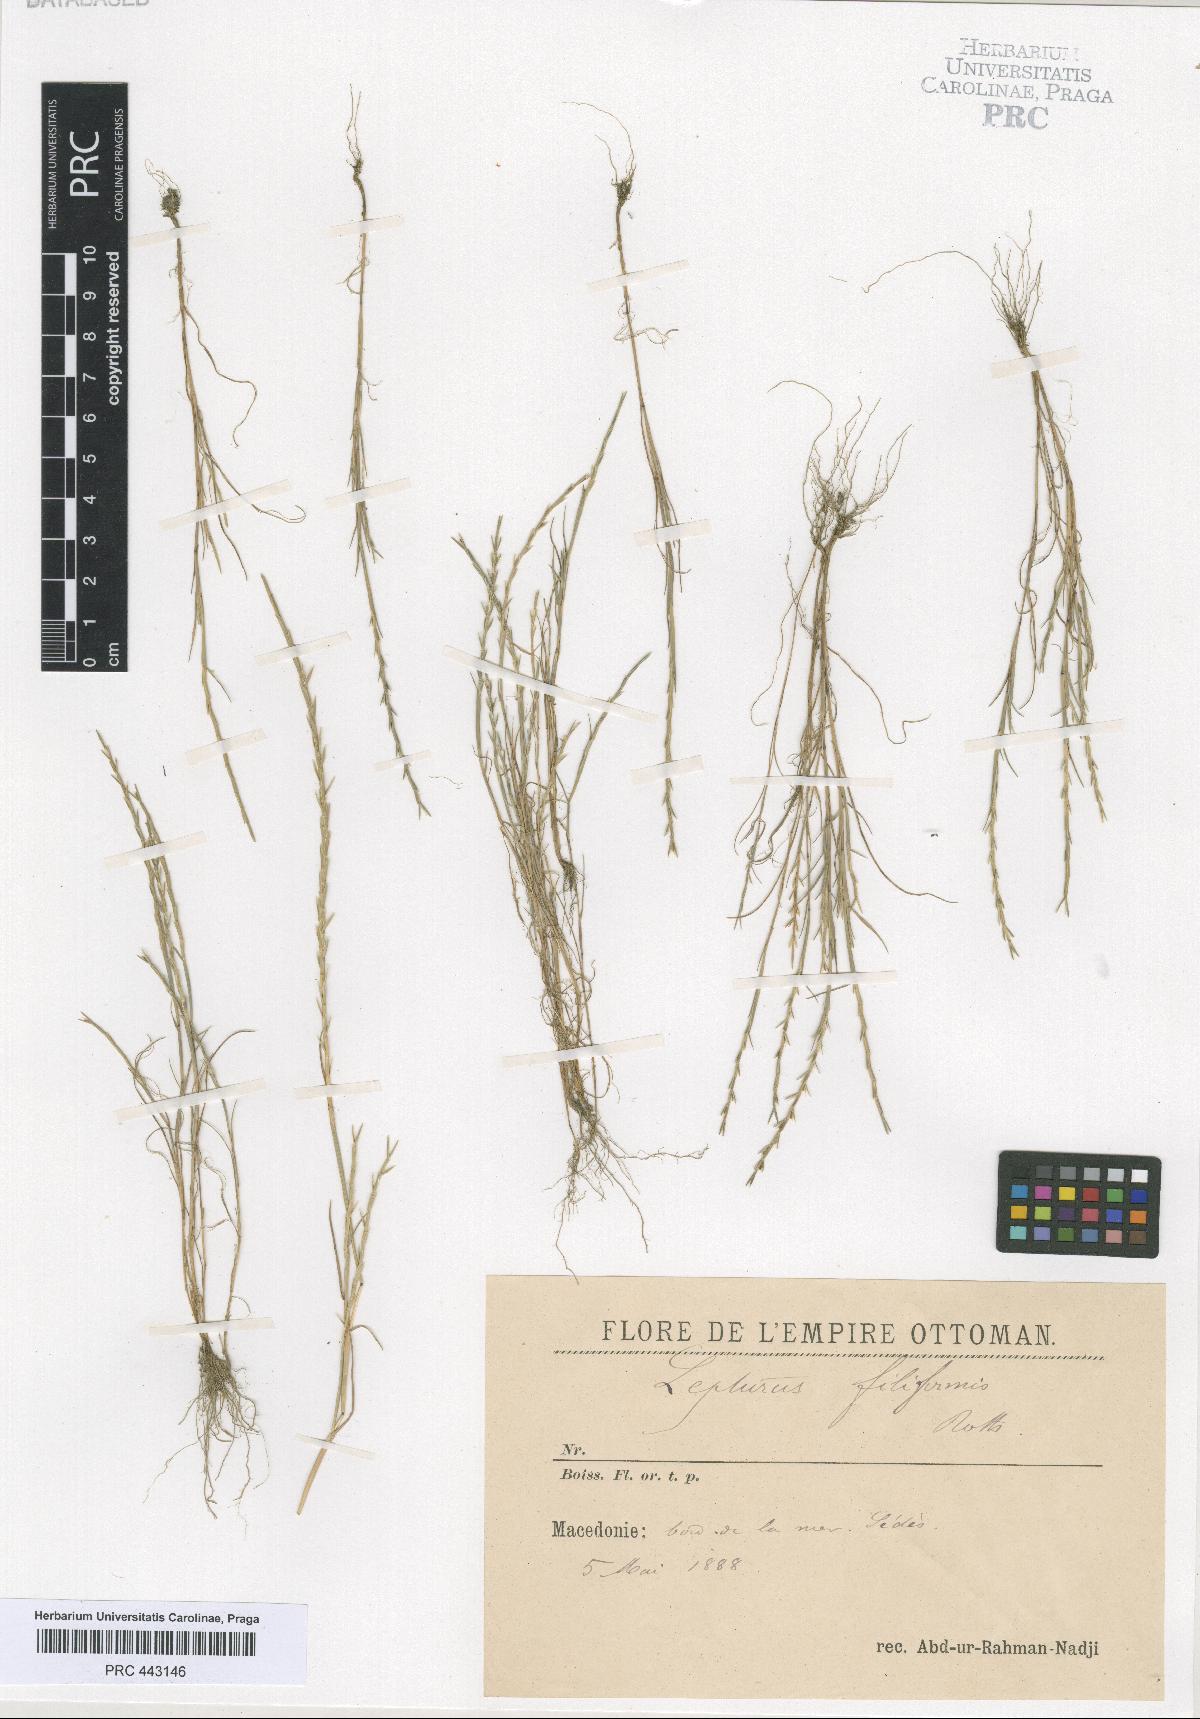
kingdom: Plantae
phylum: Tracheophyta
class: Liliopsida
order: Poales
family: Poaceae
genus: Parapholis
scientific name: Parapholis filiformis
